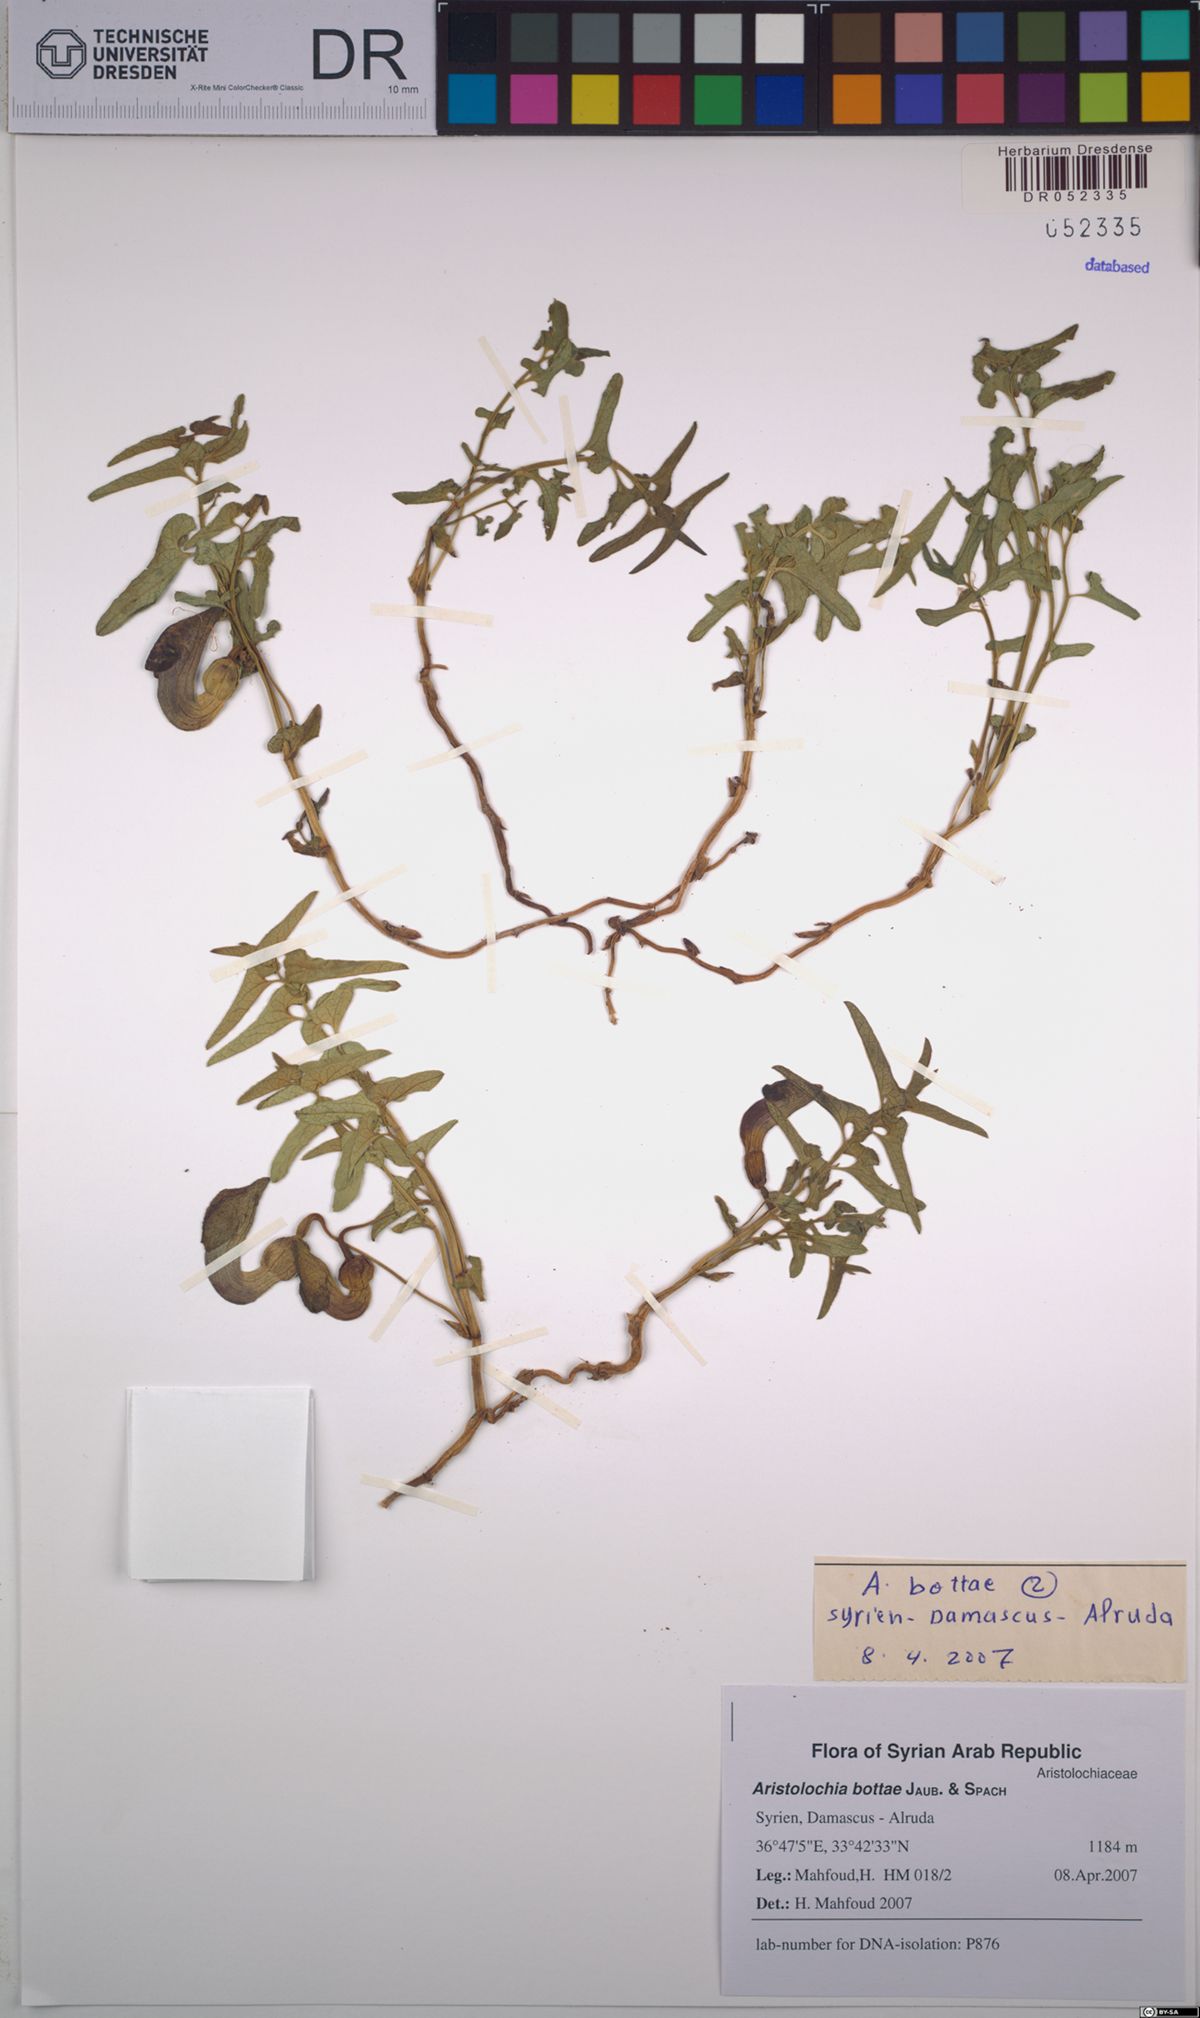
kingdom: Plantae
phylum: Tracheophyta
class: Magnoliopsida
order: Piperales
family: Aristolochiaceae
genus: Aristolochia
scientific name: Aristolochia bottae
